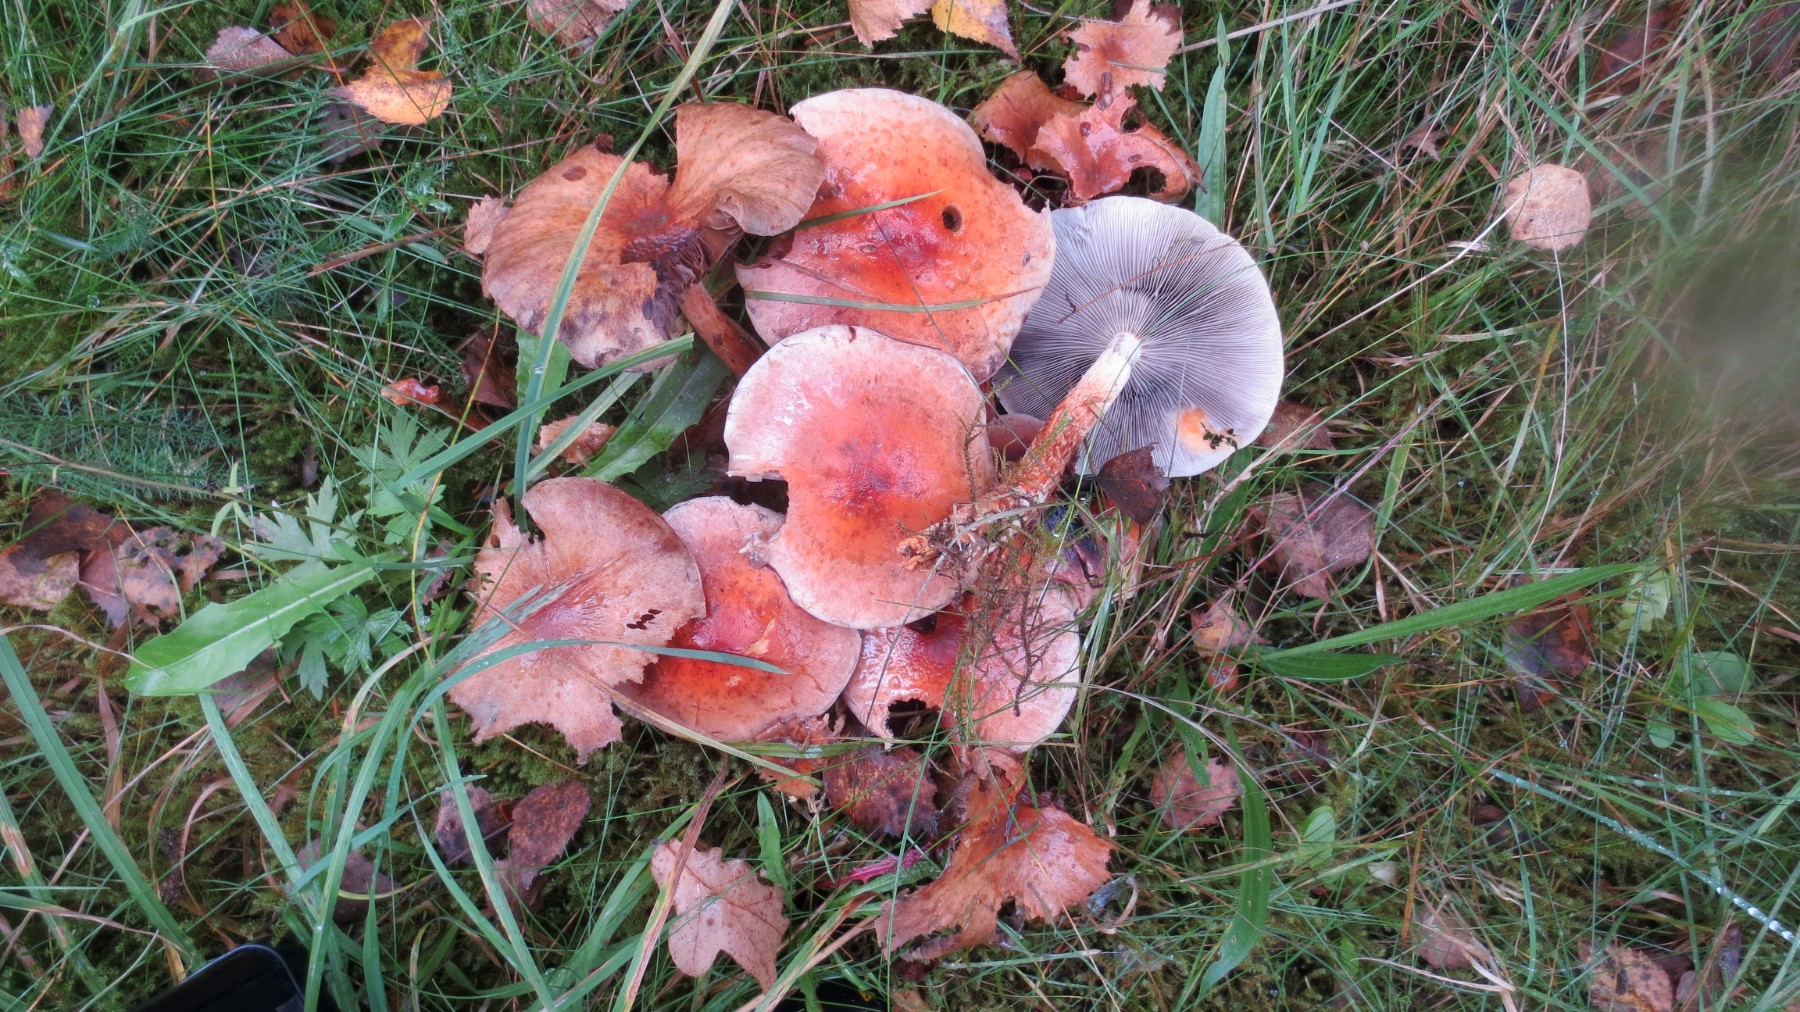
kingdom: Fungi
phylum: Basidiomycota
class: Agaricomycetes
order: Agaricales
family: Strophariaceae
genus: Hypholoma
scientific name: Hypholoma lateritium
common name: teglrød svovlhat
